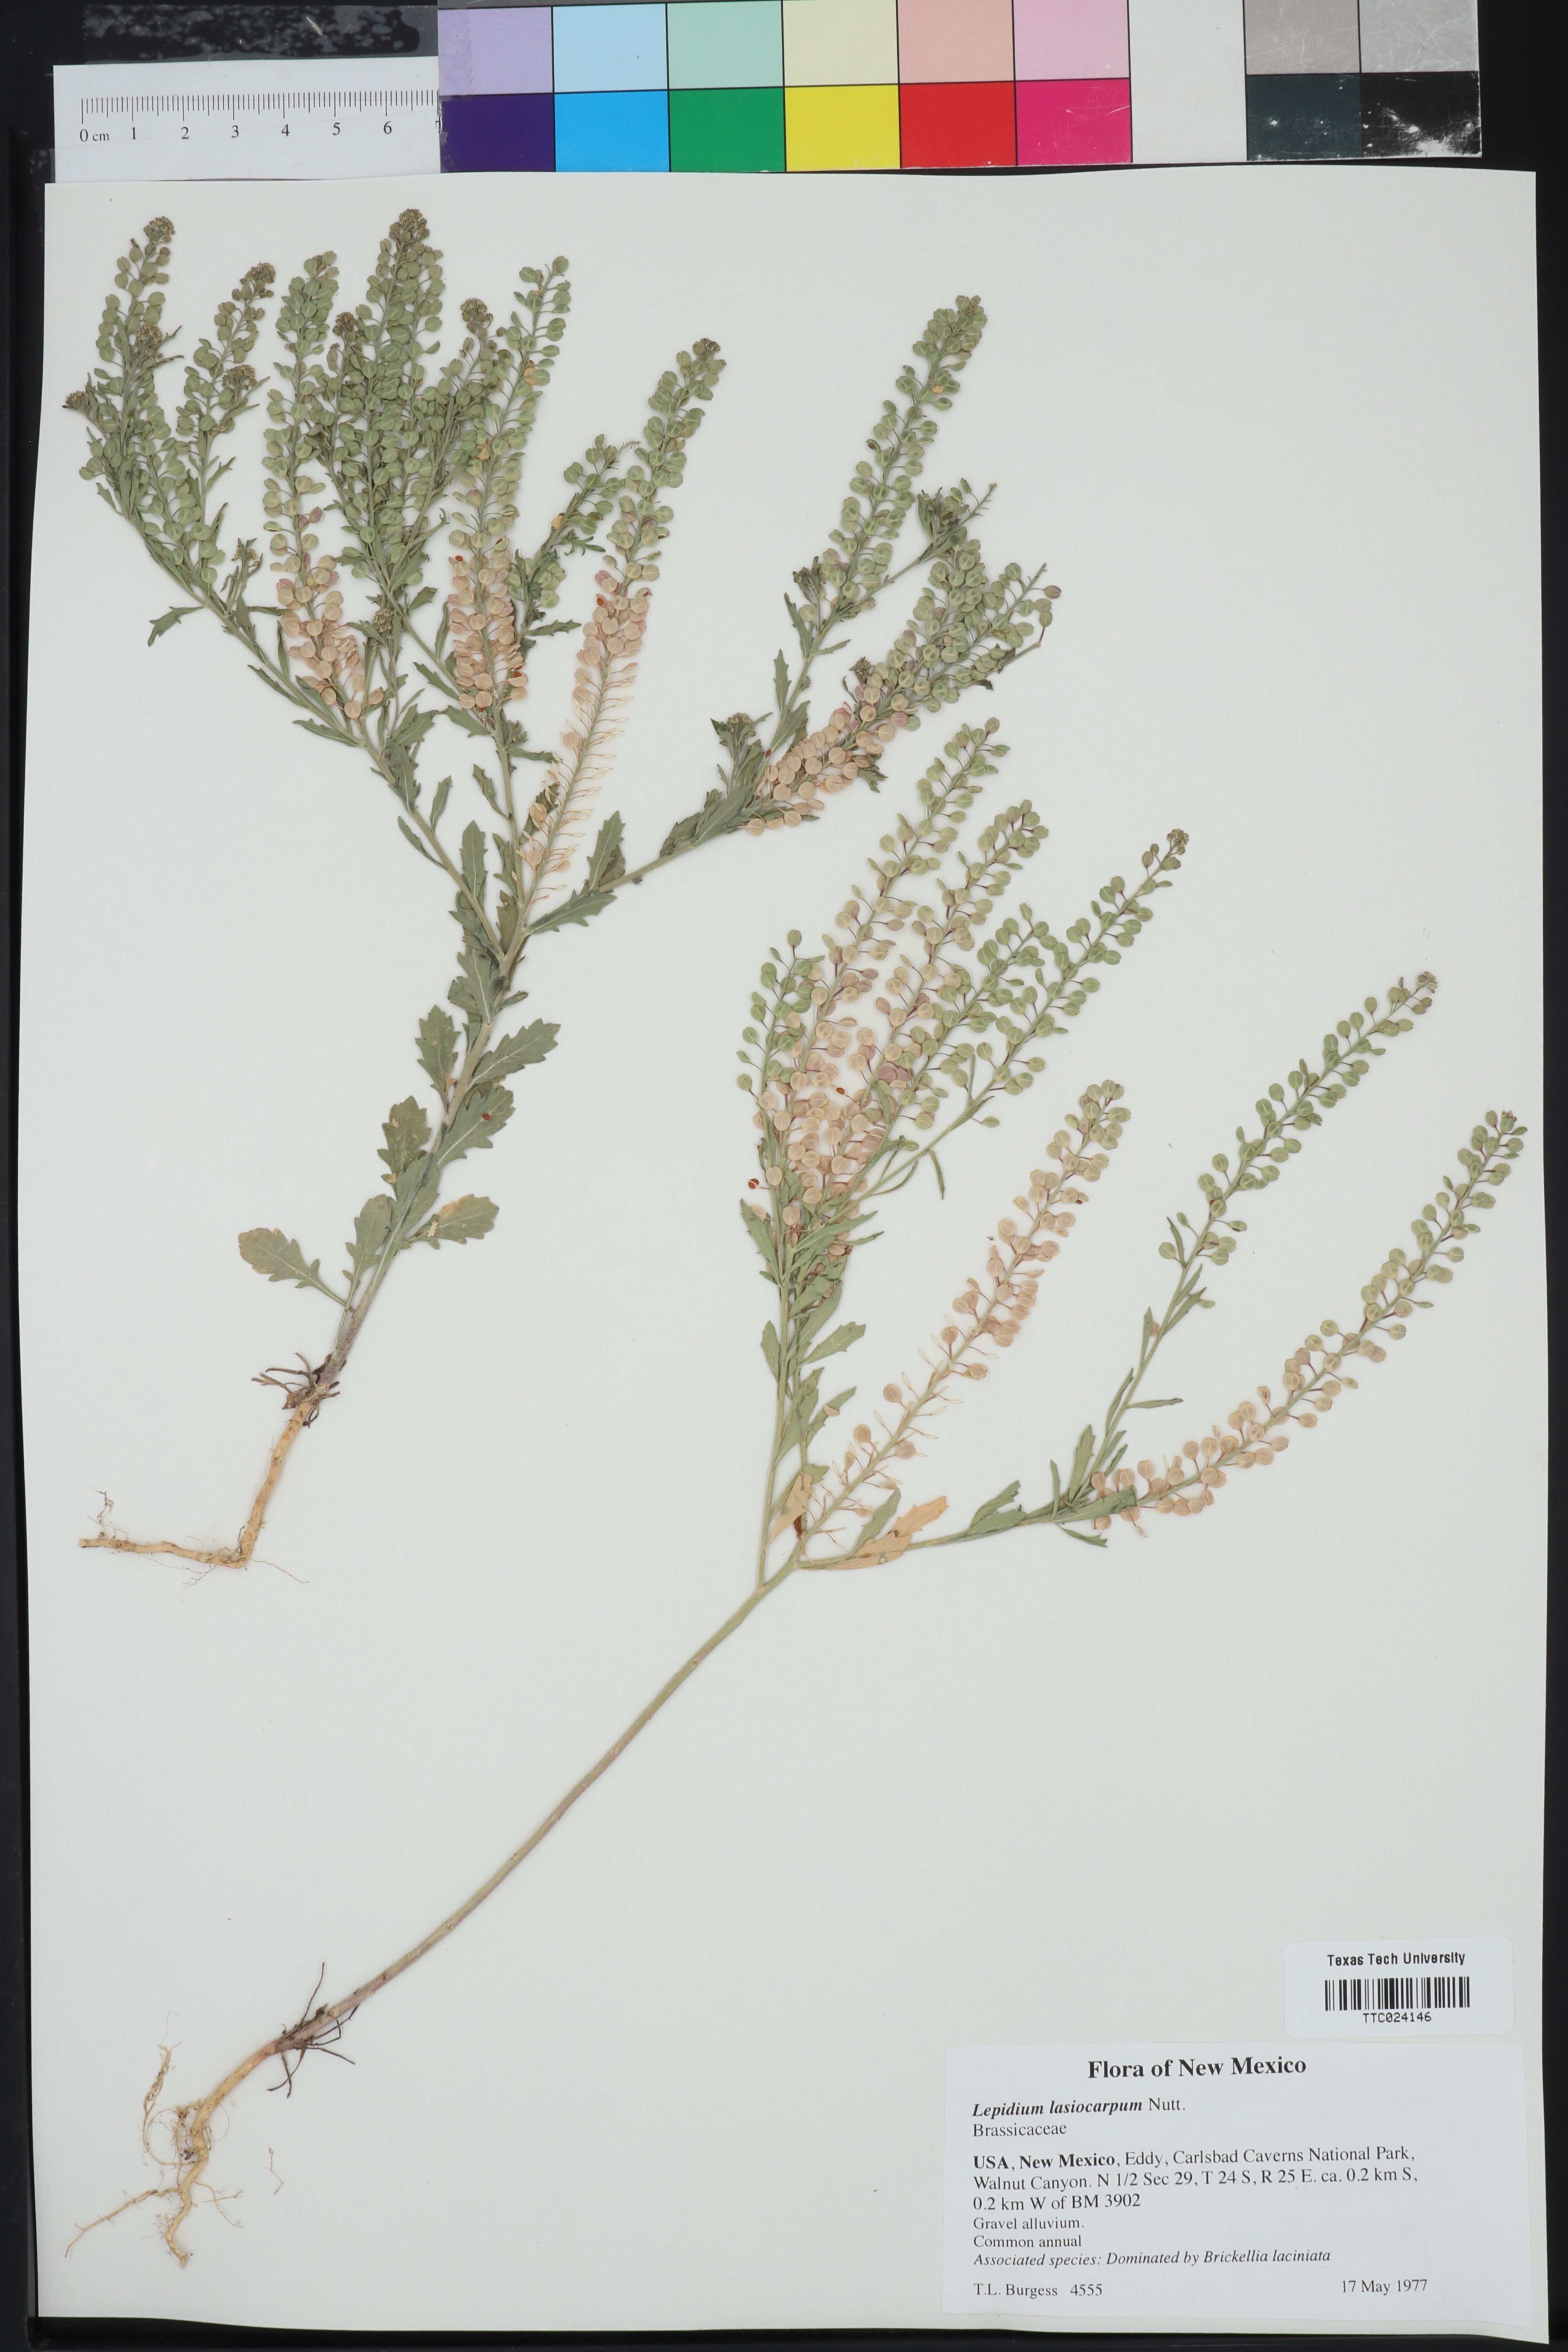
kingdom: Plantae
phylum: Tracheophyta
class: Magnoliopsida
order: Brassicales
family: Brassicaceae
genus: Lepidium
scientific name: Lepidium lasiocarpum
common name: Hairy-pod pepperwort
